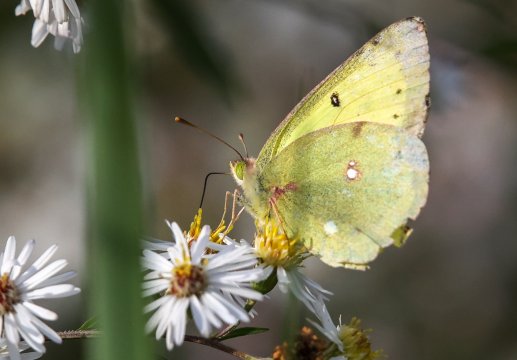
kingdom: Animalia
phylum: Arthropoda
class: Insecta
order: Lepidoptera
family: Pieridae
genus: Colias
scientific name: Colias philodice
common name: Clouded Sulphur
